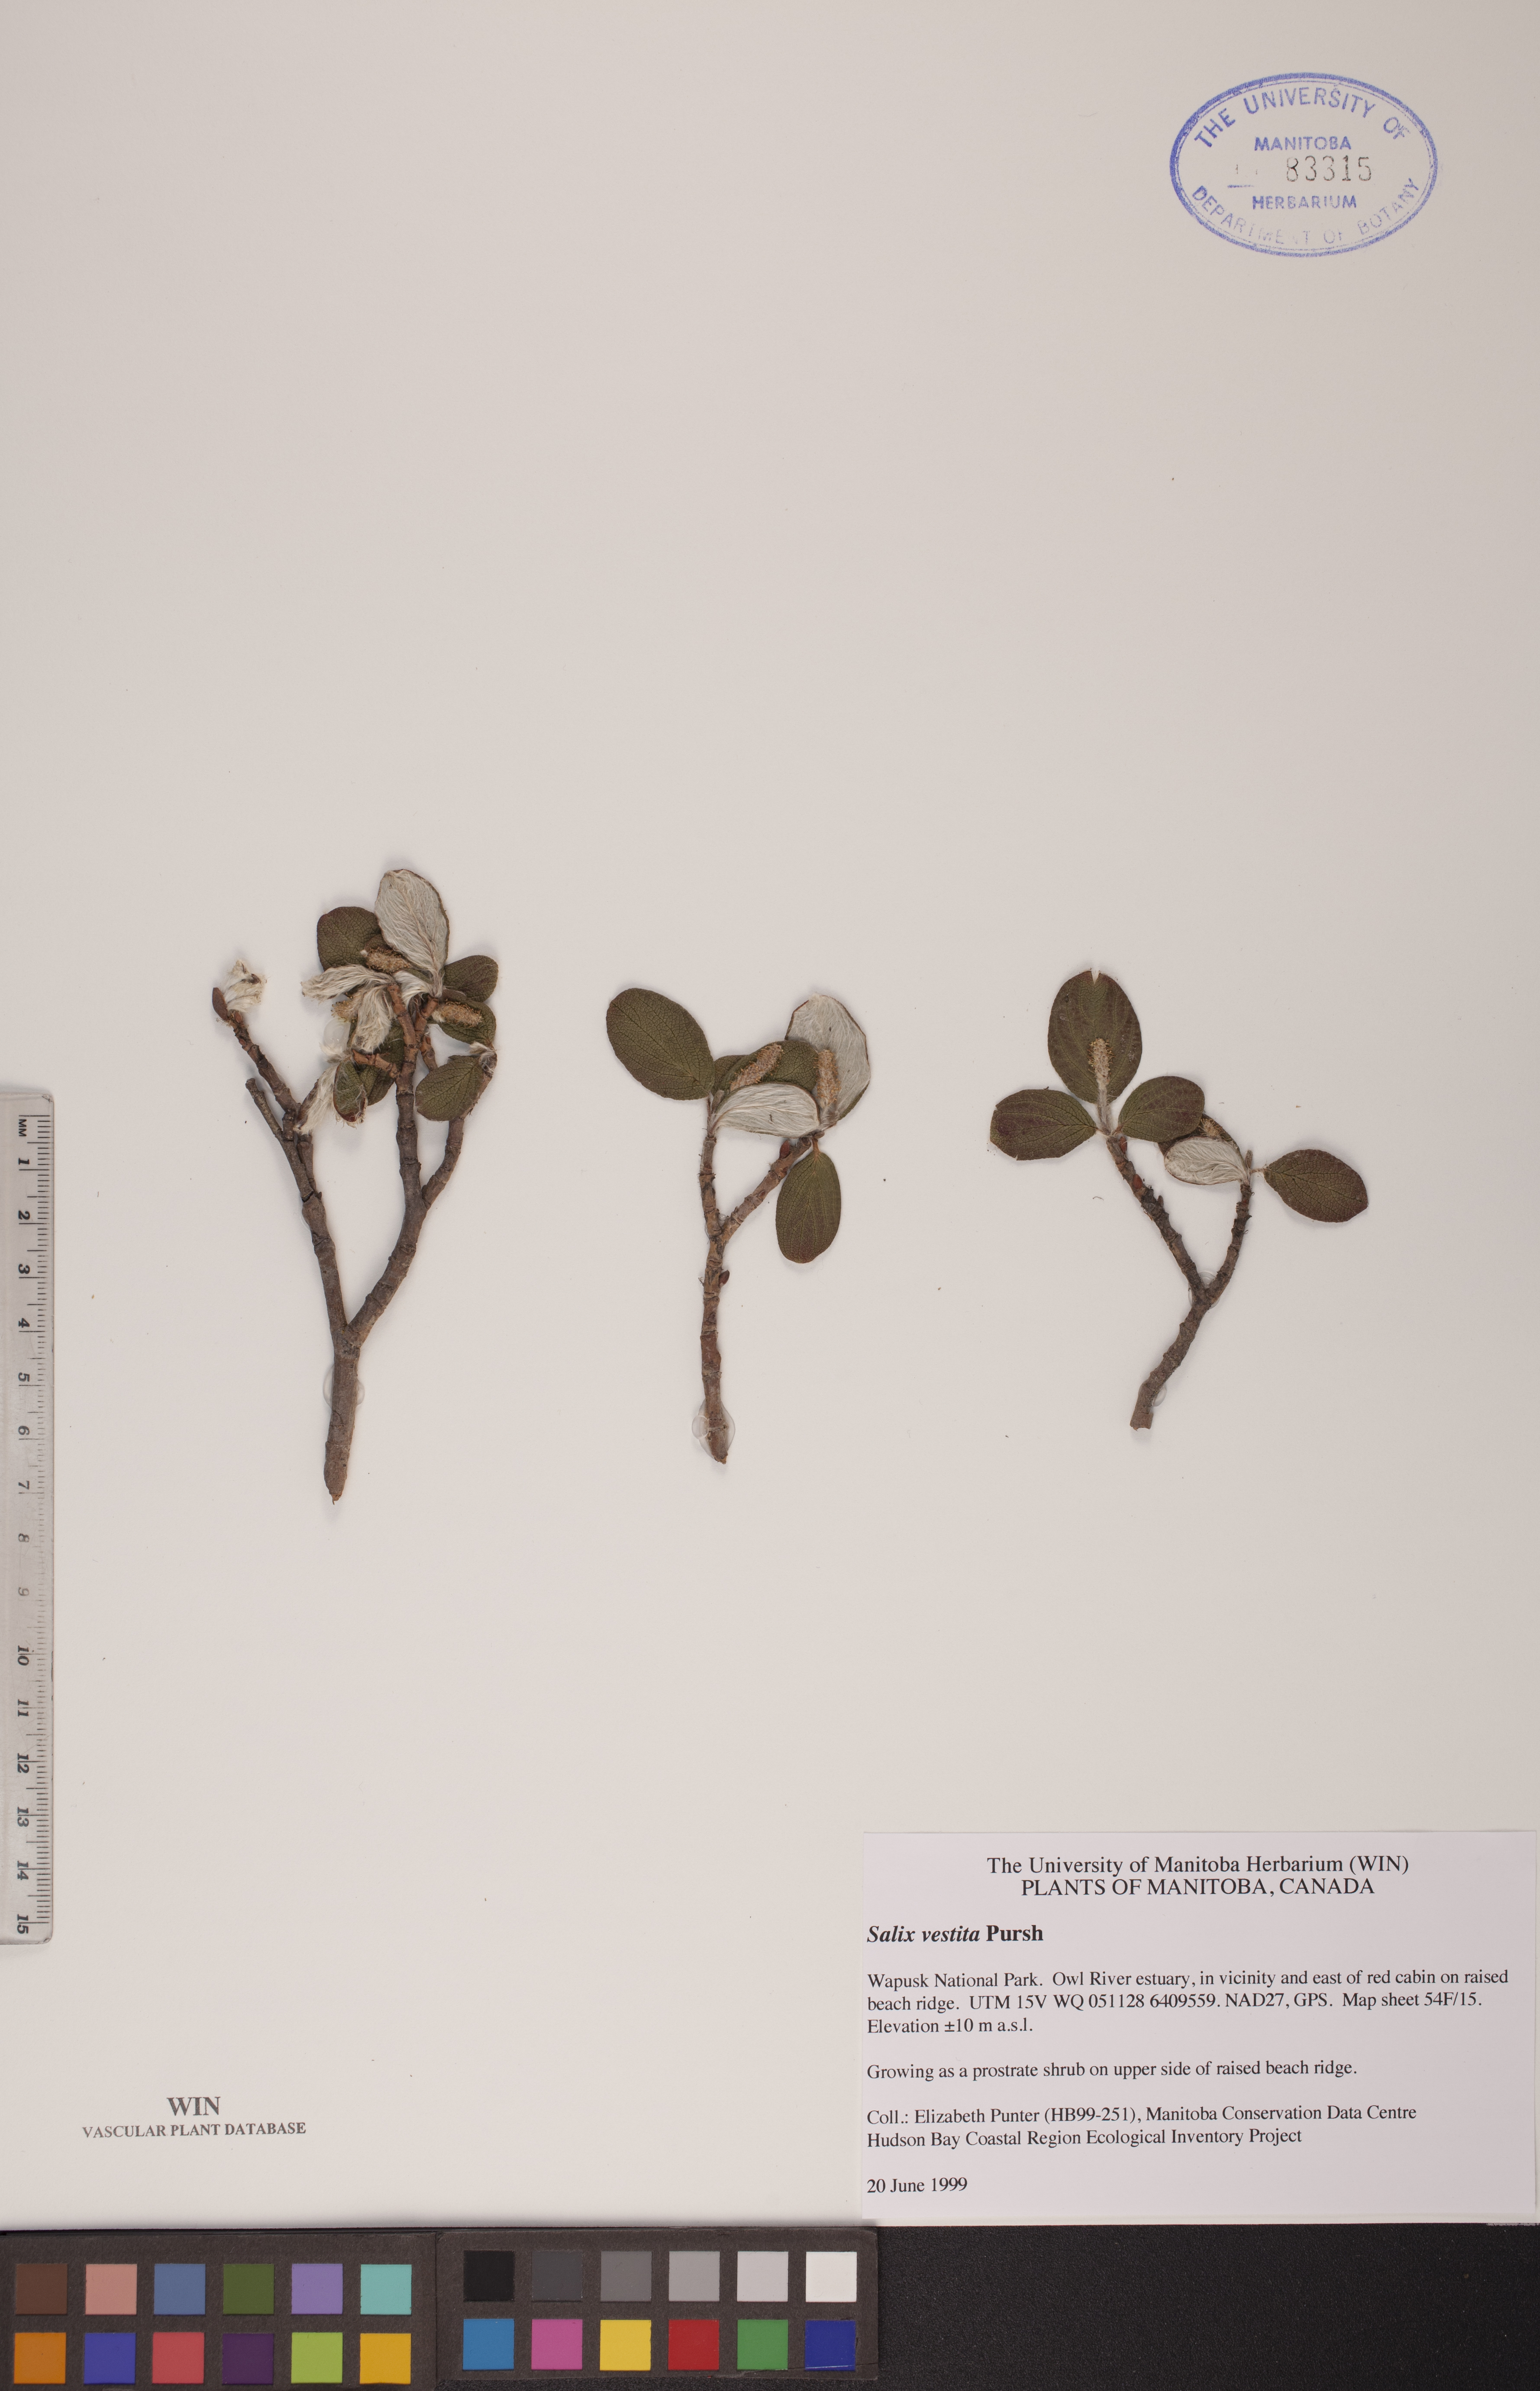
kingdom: Plantae
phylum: Tracheophyta
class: Magnoliopsida
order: Malpighiales
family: Salicaceae
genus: Salix
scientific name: Salix vestita
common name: Hairy willow
